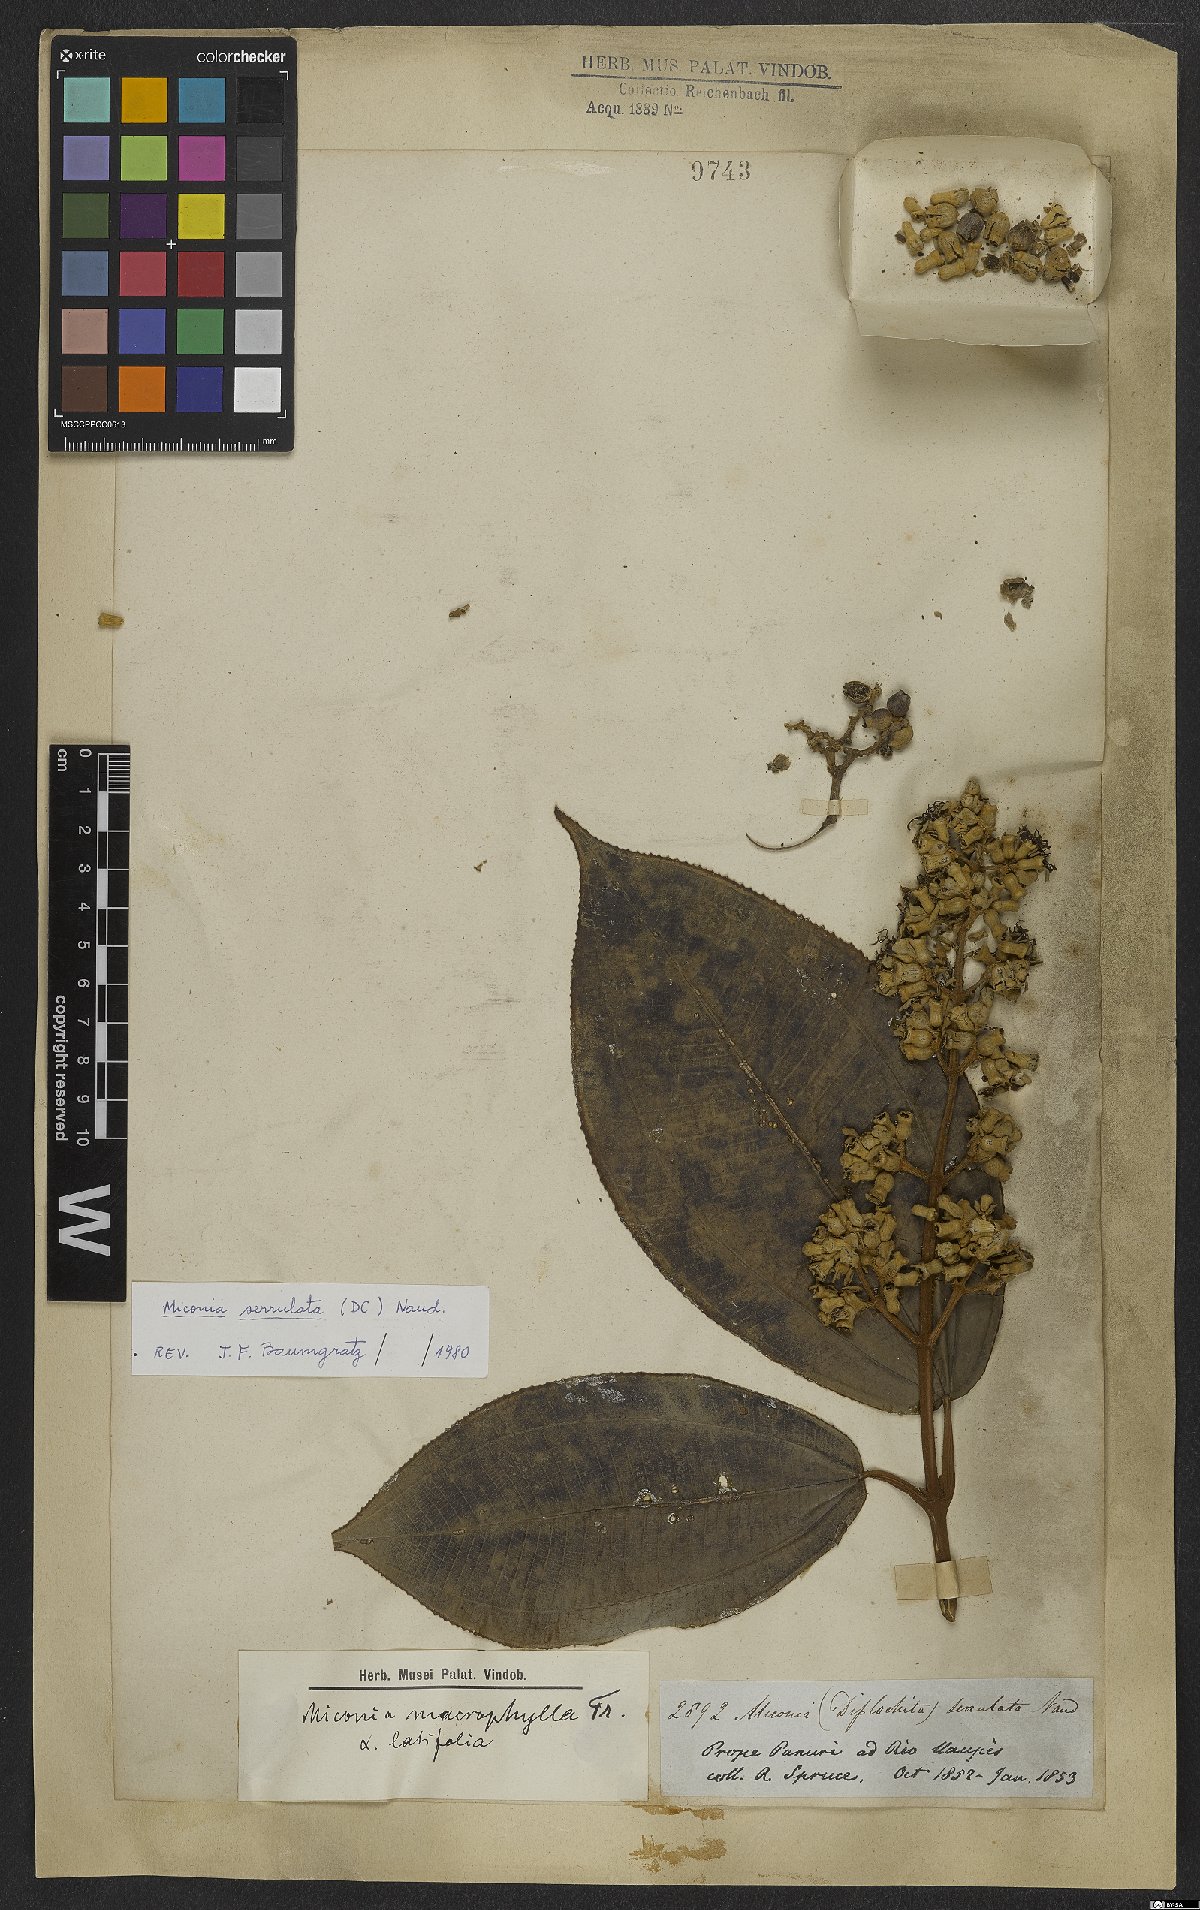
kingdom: Plantae
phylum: Tracheophyta
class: Magnoliopsida
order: Myrtales
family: Melastomataceae
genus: Miconia
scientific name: Miconia serrulata
